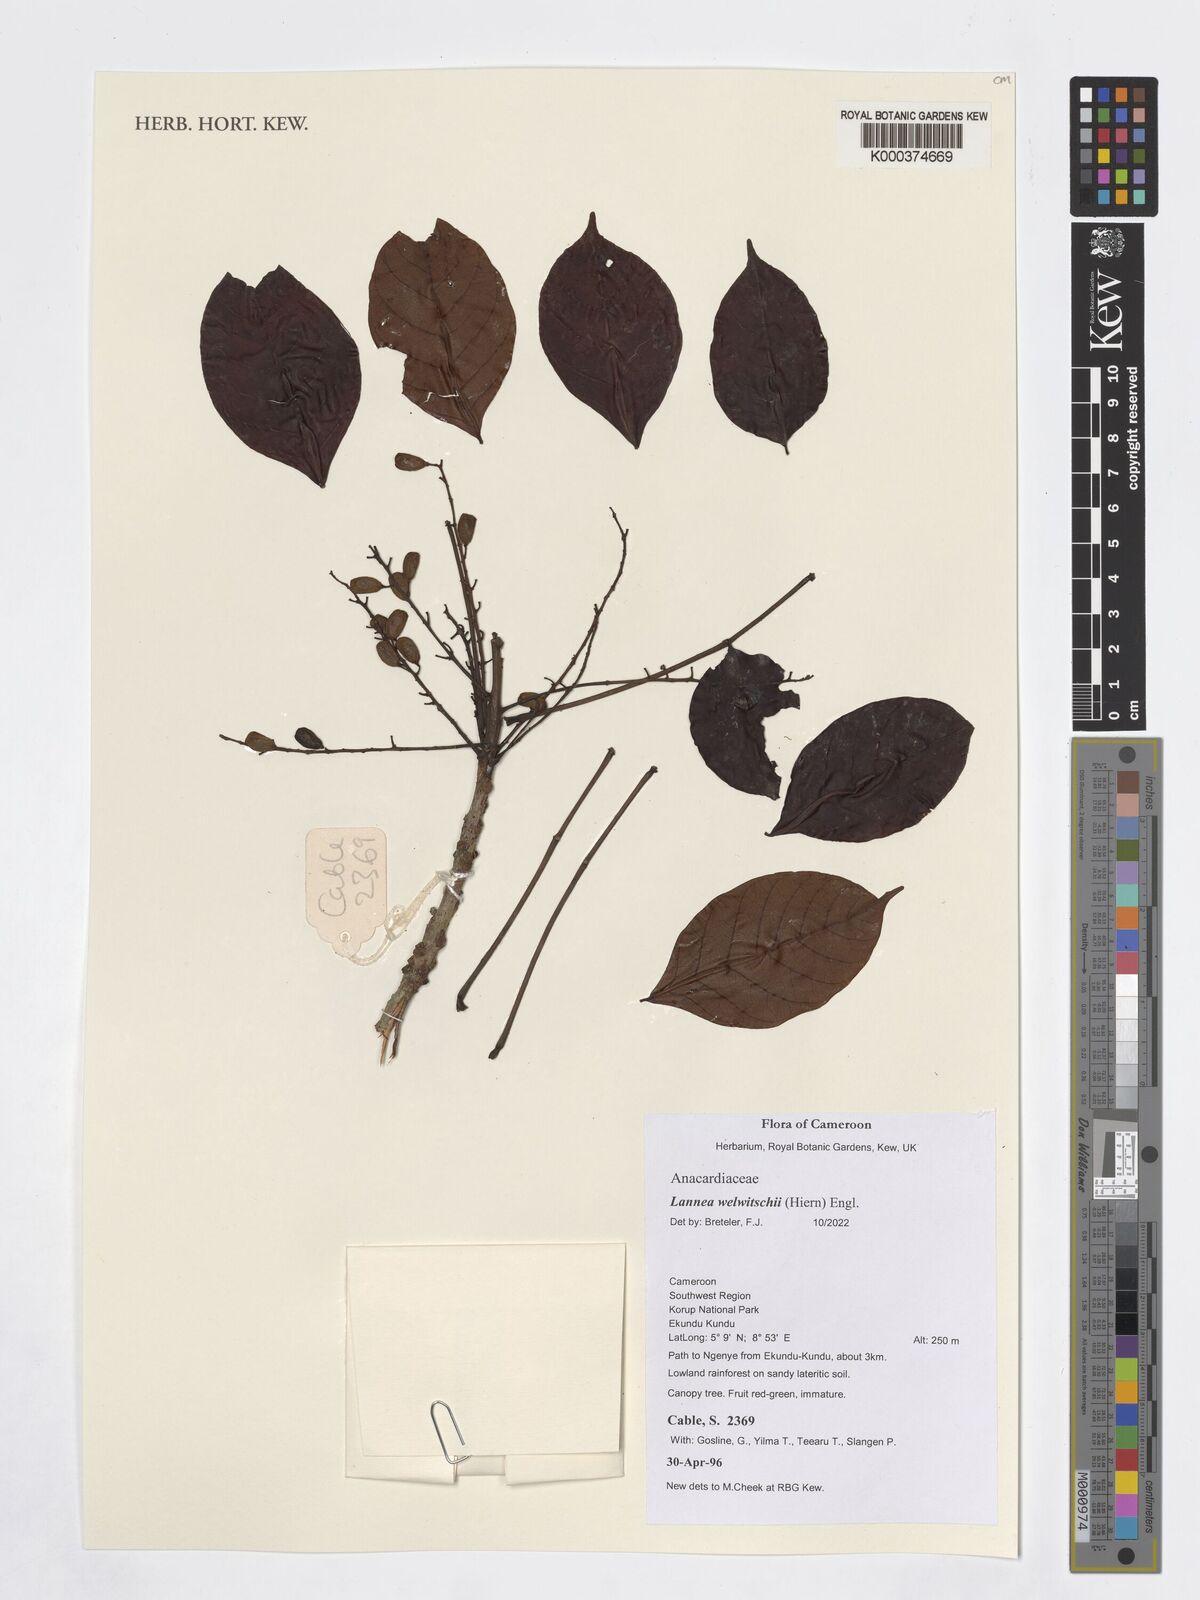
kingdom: Plantae
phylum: Tracheophyta
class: Magnoliopsida
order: Sapindales
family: Anacardiaceae
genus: Lannea
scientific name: Lannea welwitschii
